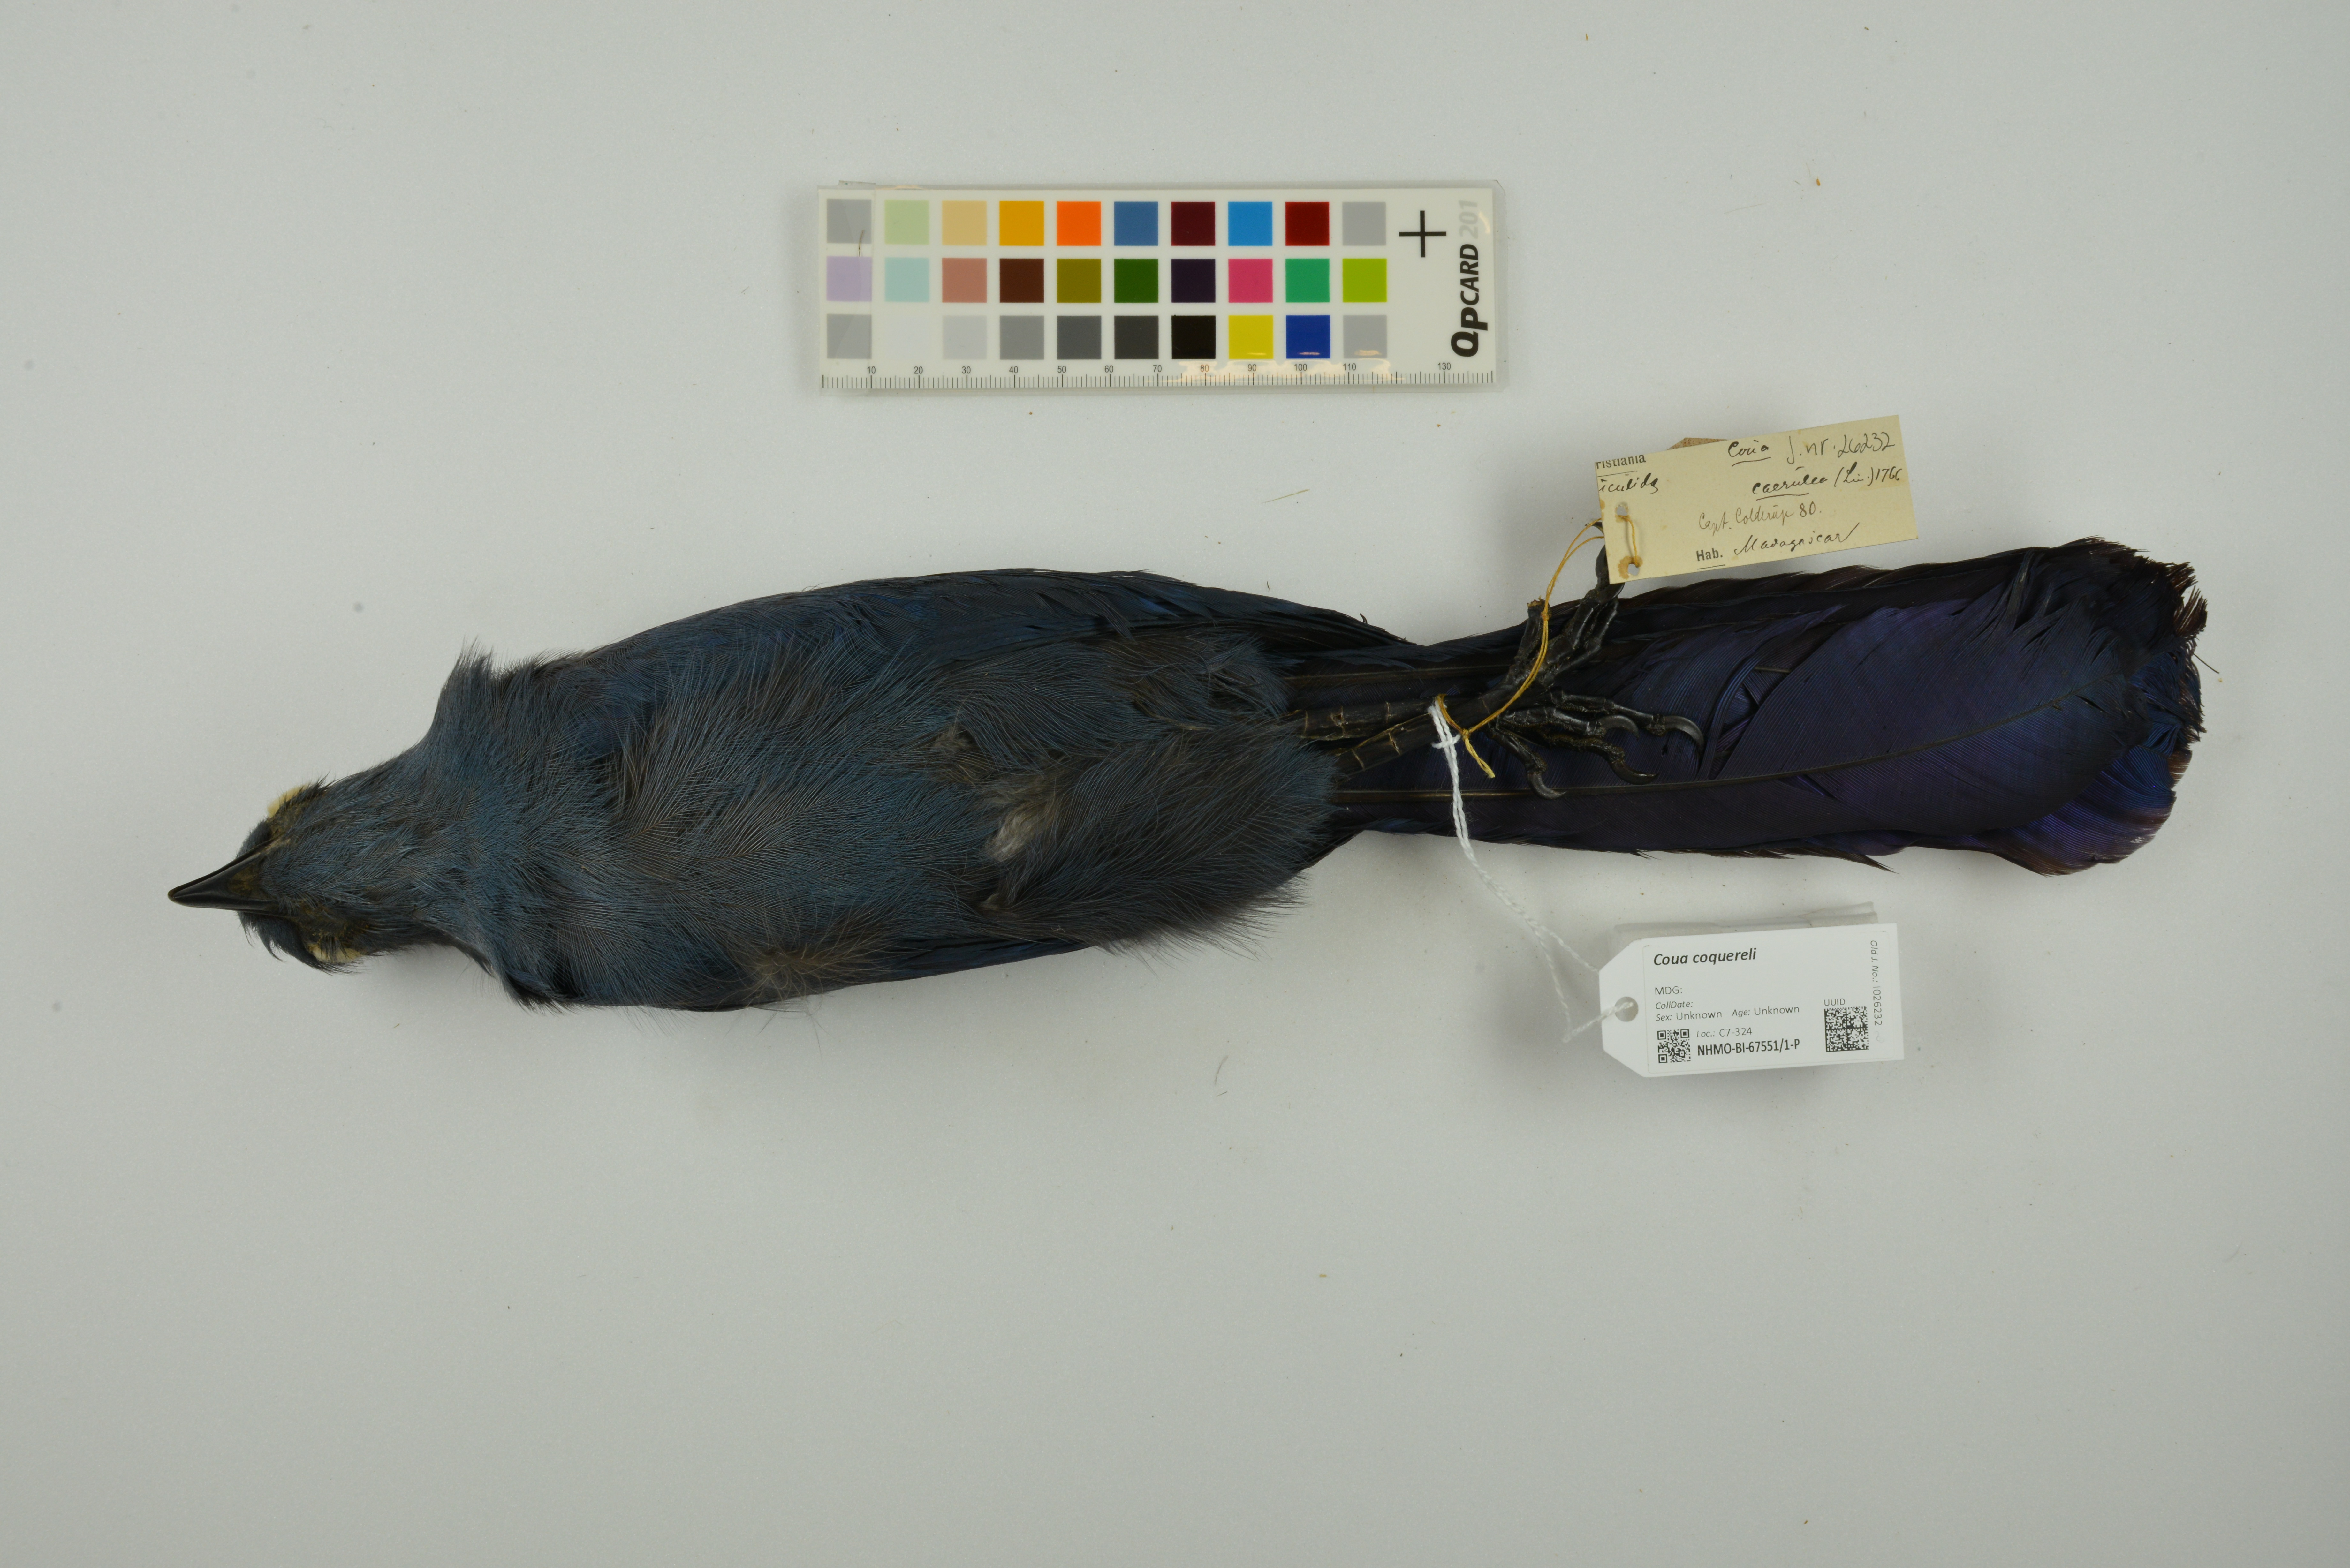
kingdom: Animalia
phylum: Chordata
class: Aves
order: Cuculiformes
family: Cuculidae
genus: Coua
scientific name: Coua coquereli
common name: Coquerel's coua
